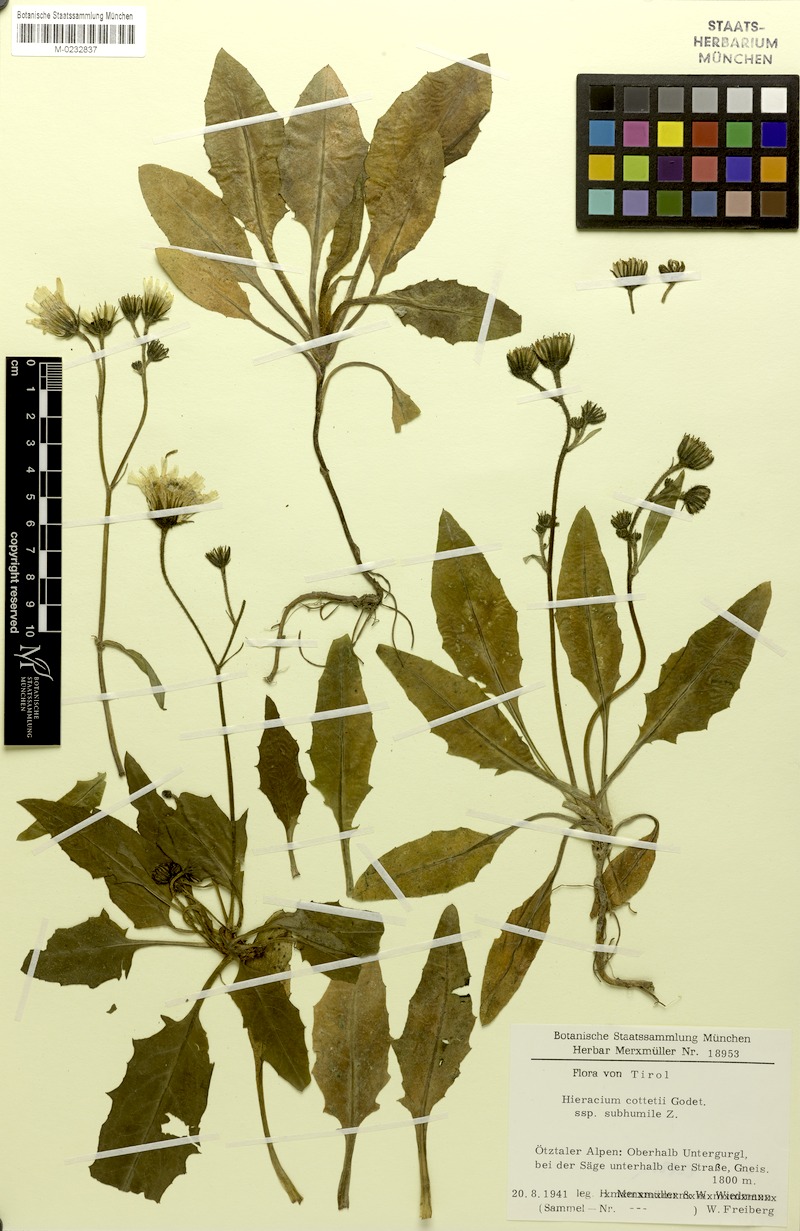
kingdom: Plantae
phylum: Tracheophyta
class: Magnoliopsida
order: Asterales
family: Asteraceae
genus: Hieracium
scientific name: Hieracium cottetii
